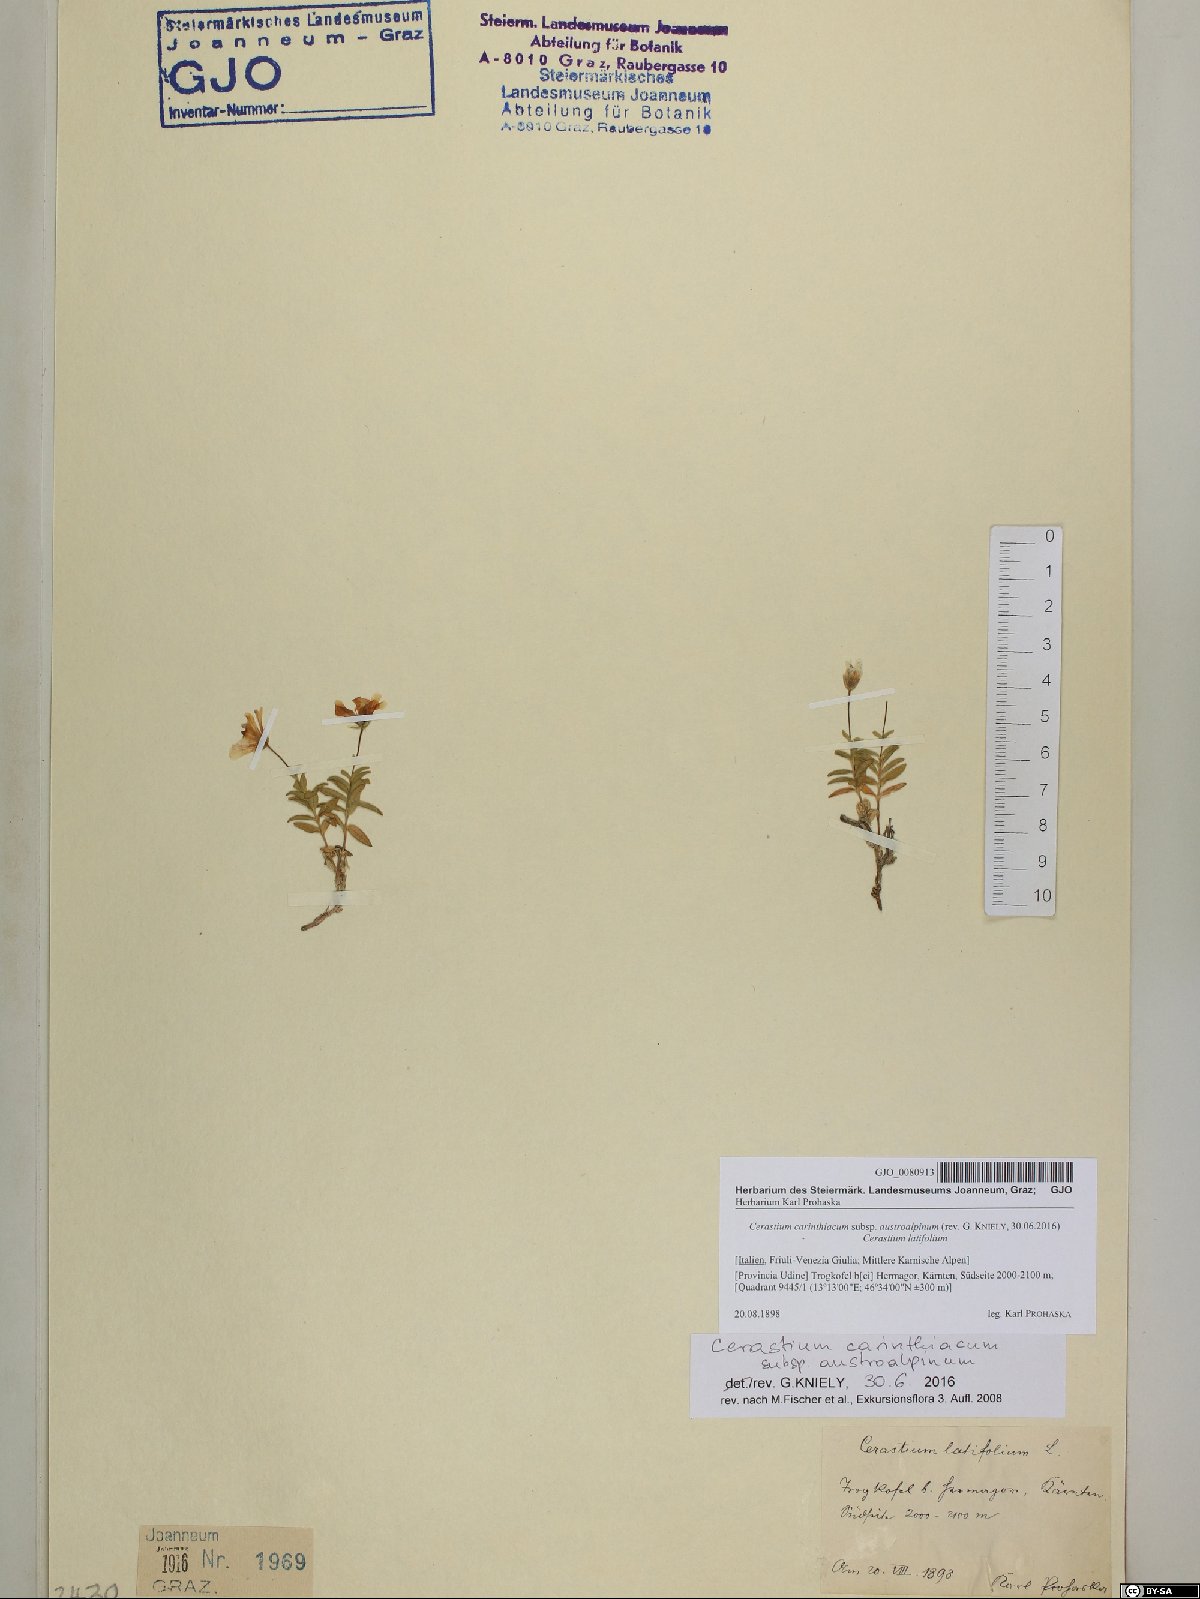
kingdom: Plantae
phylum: Tracheophyta
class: Magnoliopsida
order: Caryophyllales
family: Caryophyllaceae
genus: Cerastium
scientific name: Cerastium carinthiacum
